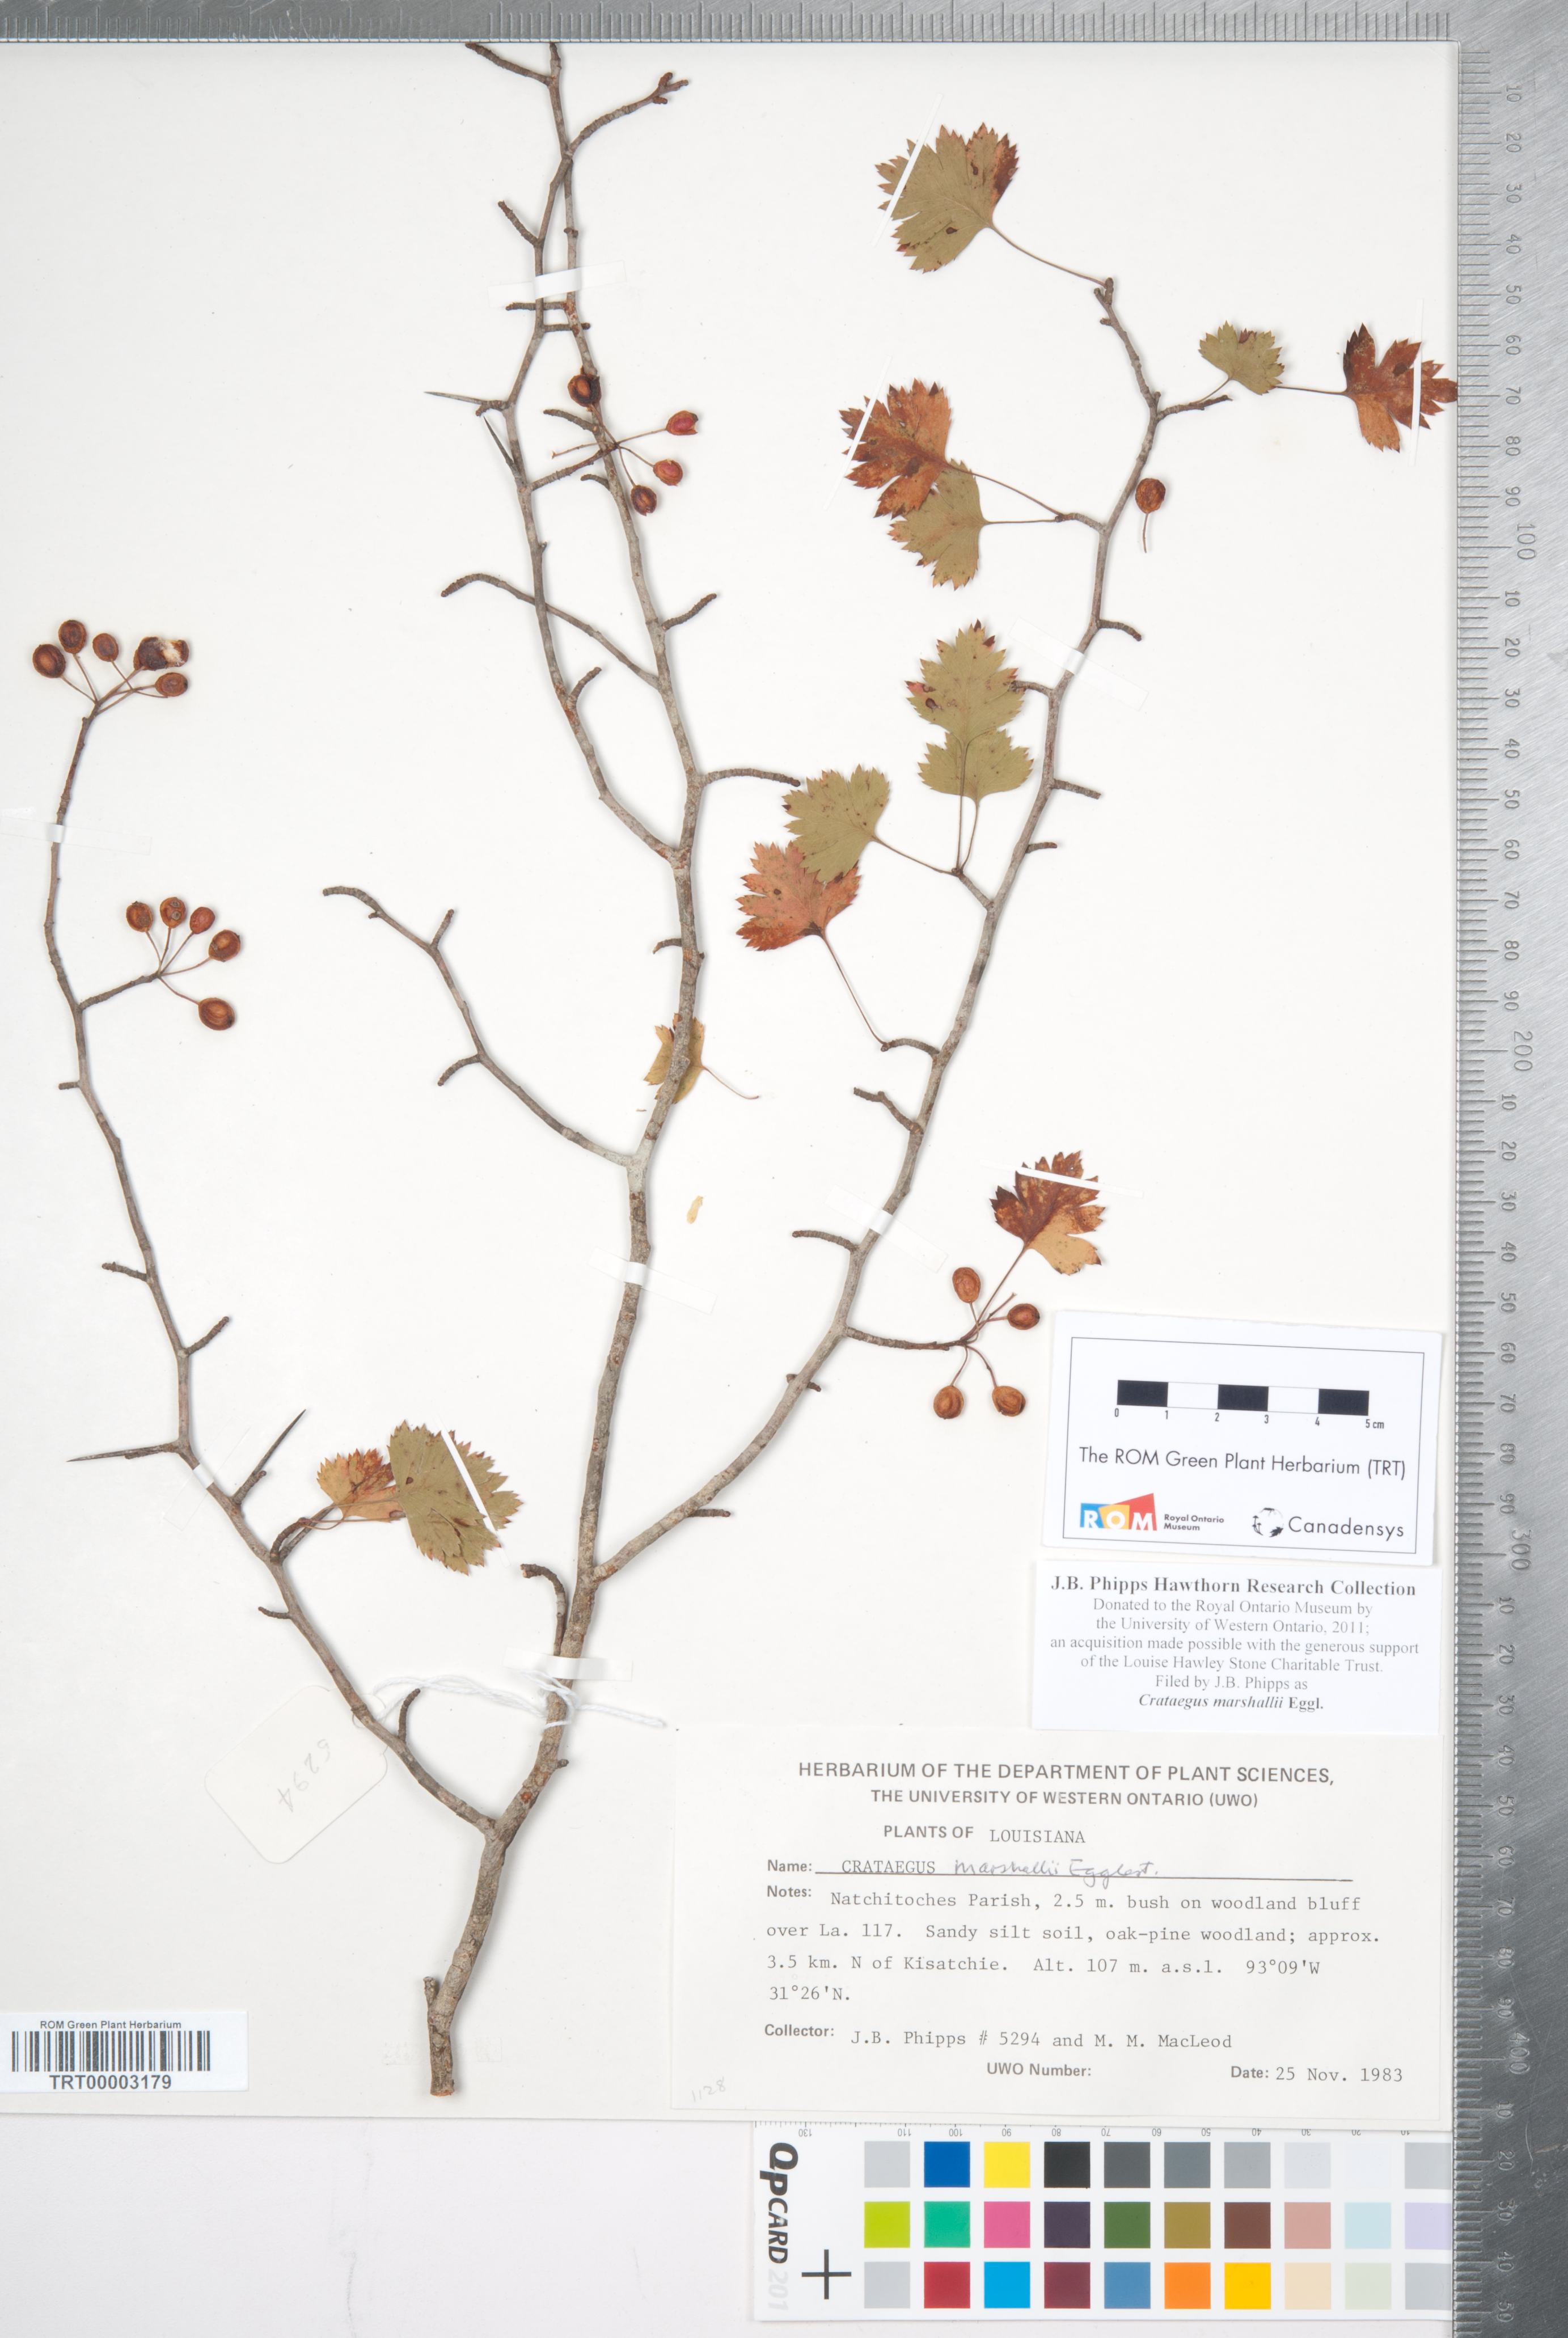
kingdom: Plantae
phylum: Tracheophyta
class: Magnoliopsida
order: Rosales
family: Rosaceae
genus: Crataegus
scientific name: Crataegus marshallii
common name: Parsley-hawthorn
